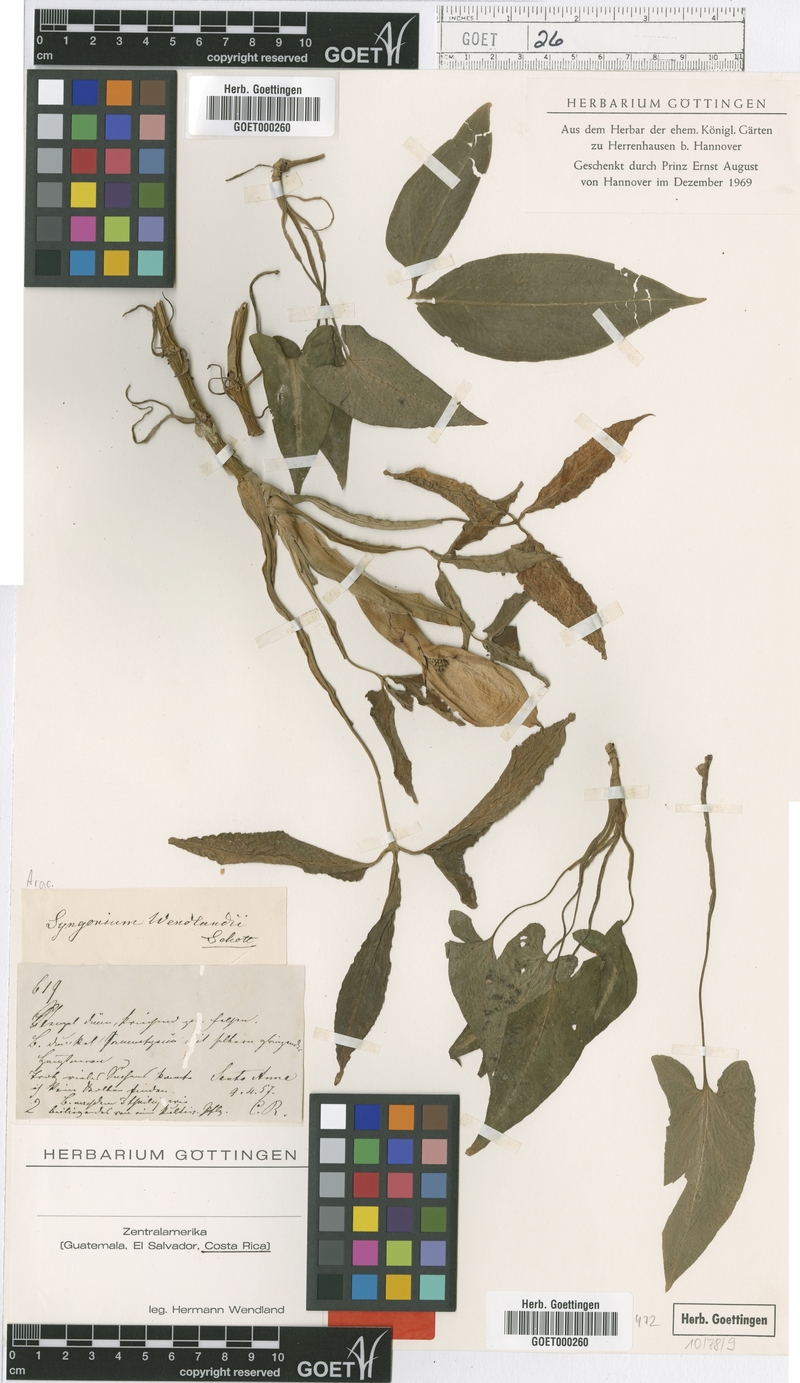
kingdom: Plantae
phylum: Tracheophyta
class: Liliopsida
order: Alismatales
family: Araceae
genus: Syngonium
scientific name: Syngonium wendlandii
